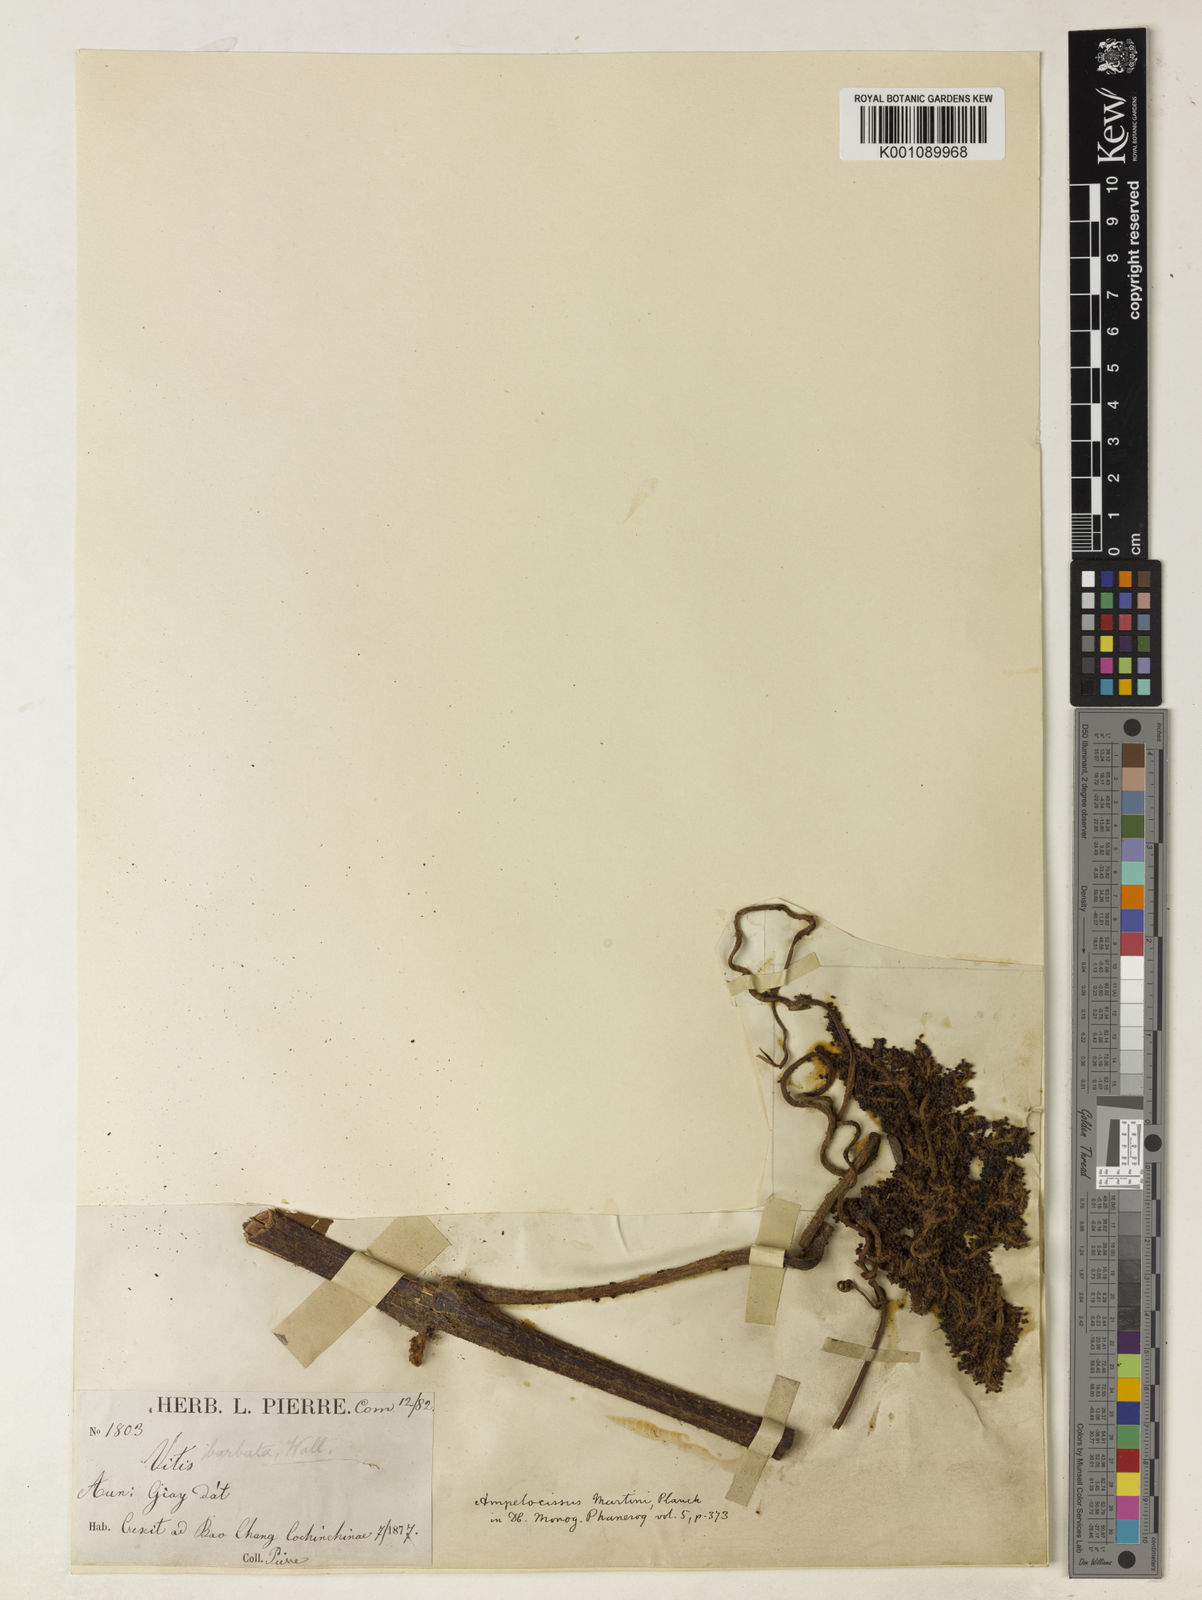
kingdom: Plantae
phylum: Tracheophyta
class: Magnoliopsida
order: Vitales
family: Vitaceae
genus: Ampelocissus
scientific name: Ampelocissus martini
